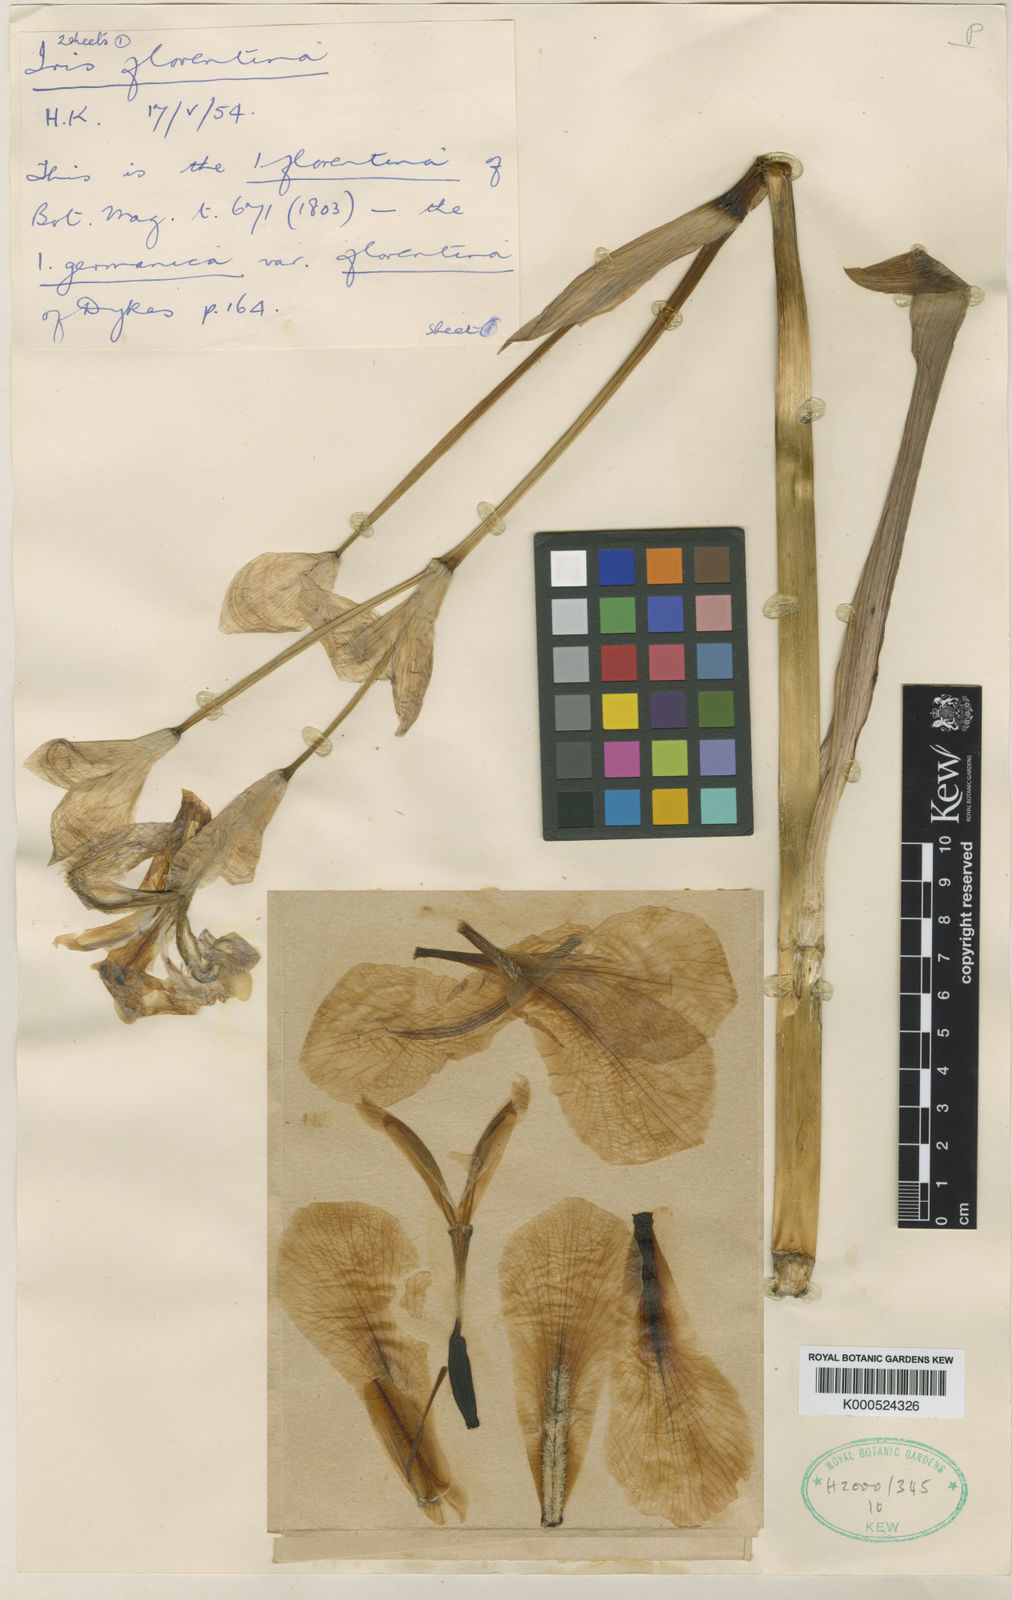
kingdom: Plantae
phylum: Tracheophyta
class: Liliopsida
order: Asparagales
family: Iridaceae
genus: Iris
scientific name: Iris germanica
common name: German iris
